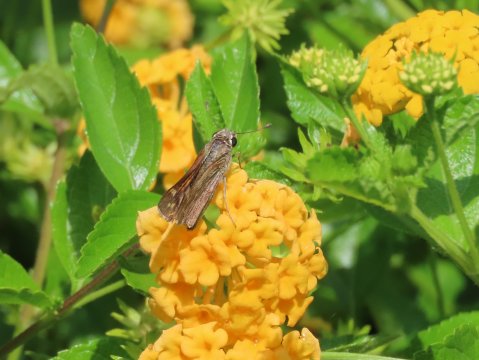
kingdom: Animalia
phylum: Arthropoda
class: Insecta
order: Lepidoptera
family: Hesperiidae
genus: Atalopedes
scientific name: Atalopedes campestris
